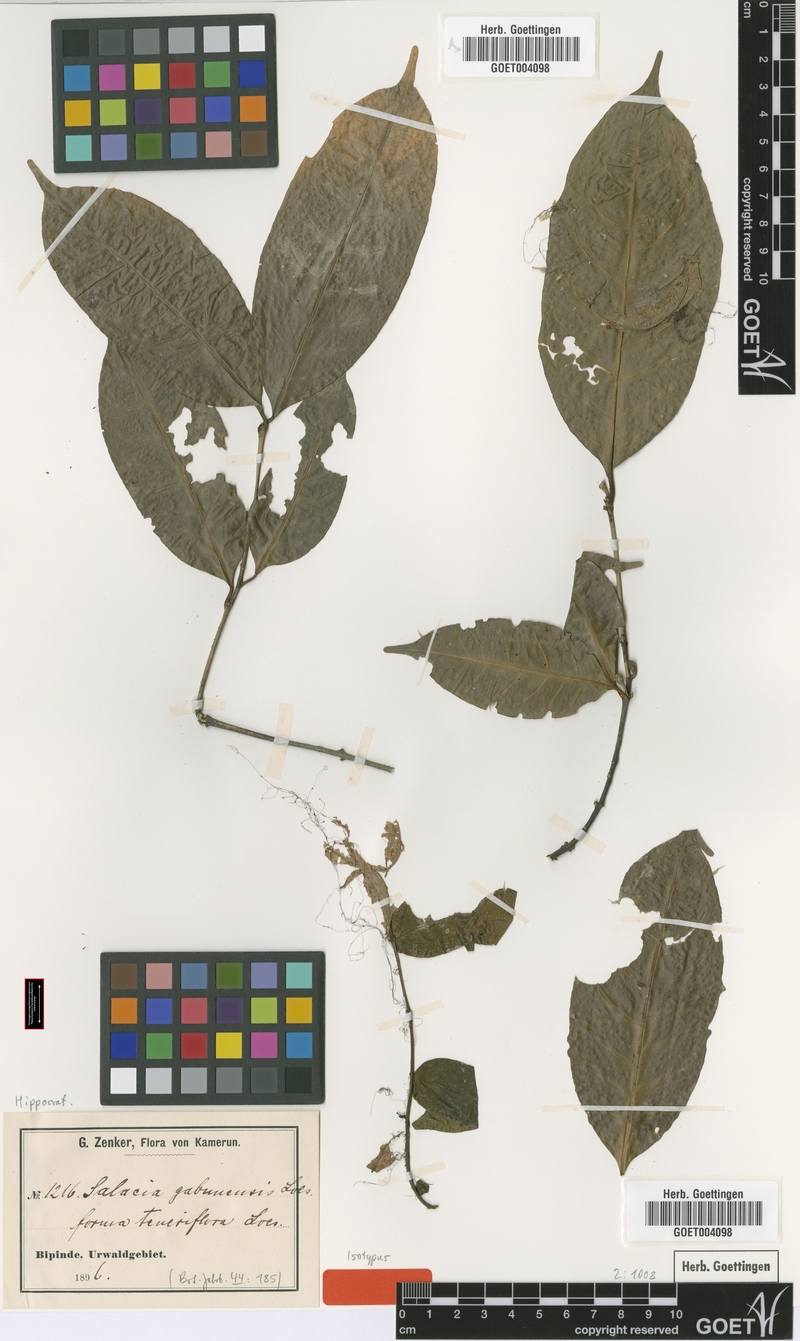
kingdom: Plantae
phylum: Tracheophyta
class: Magnoliopsida
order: Celastrales
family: Celastraceae
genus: Salacia
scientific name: Salacia gabunensis
